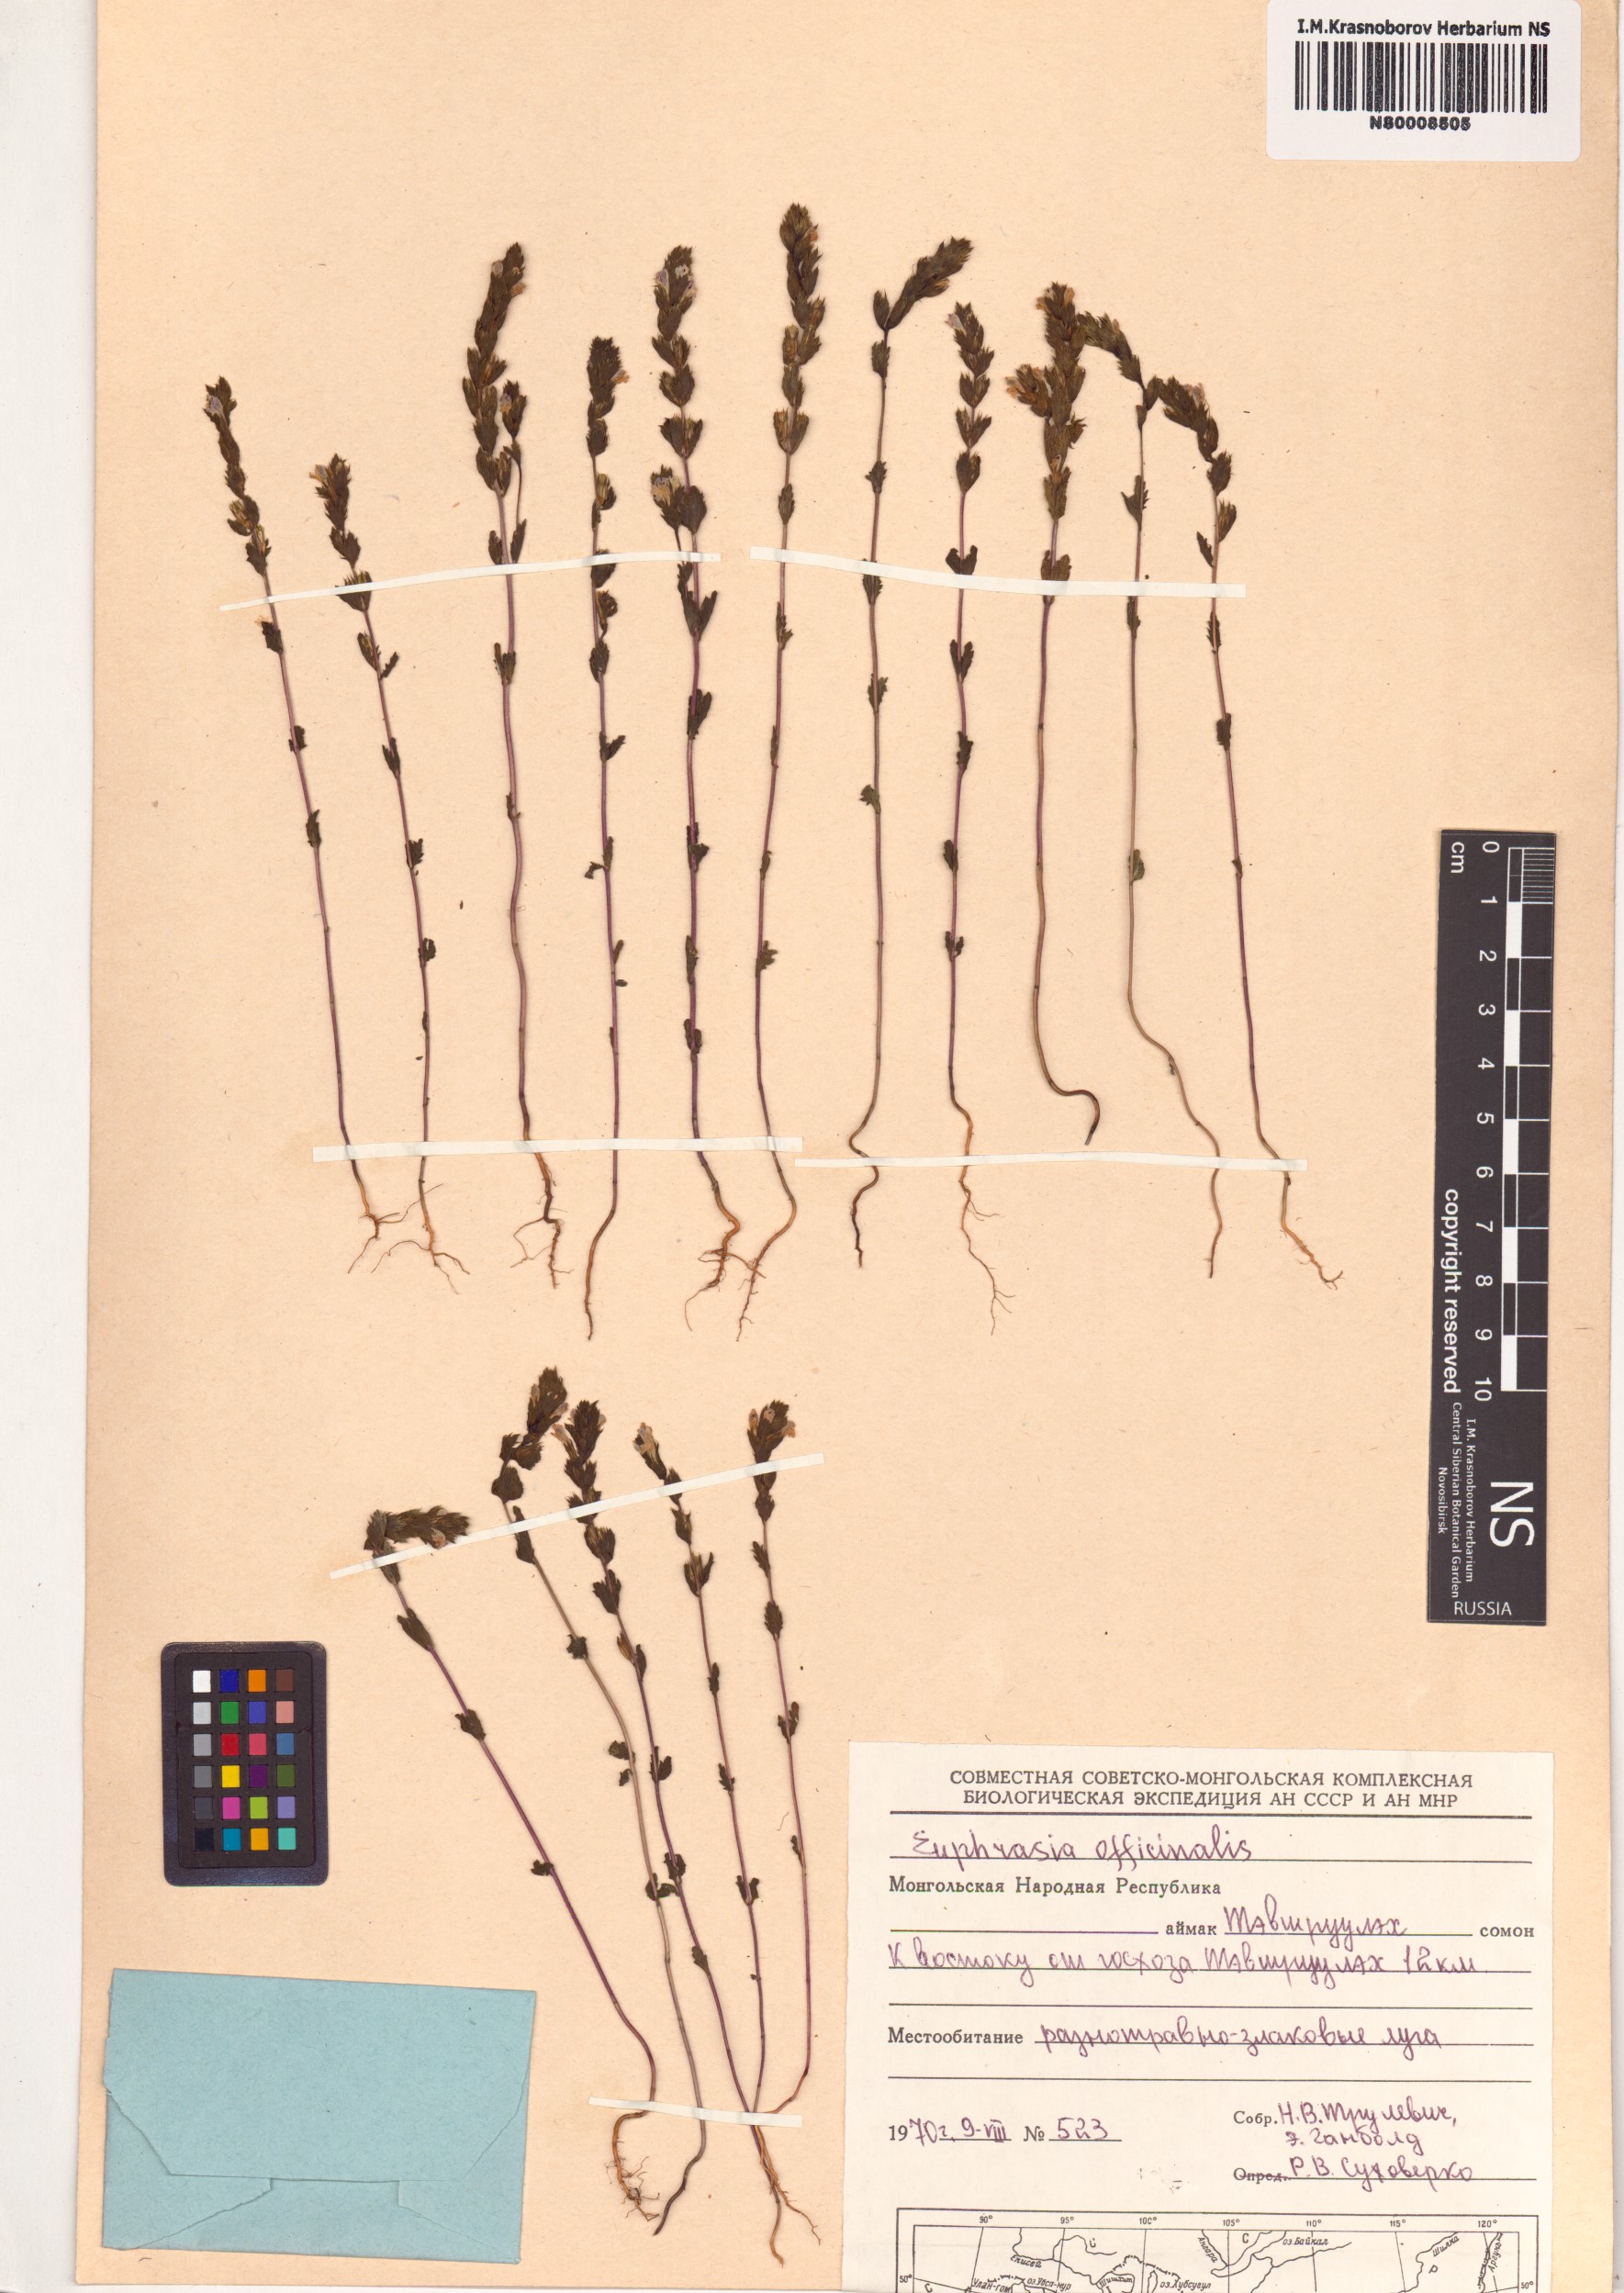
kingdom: Plantae
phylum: Tracheophyta
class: Magnoliopsida
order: Lamiales
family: Orobanchaceae
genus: Euphrasia
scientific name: Euphrasia officinalis
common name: Eyebright
